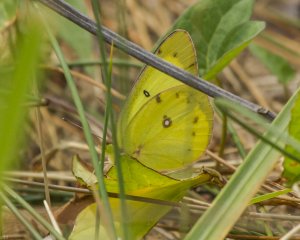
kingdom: Animalia
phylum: Arthropoda
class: Insecta
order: Lepidoptera
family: Pieridae
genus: Colias
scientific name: Colias philodice
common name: Clouded Sulphur
